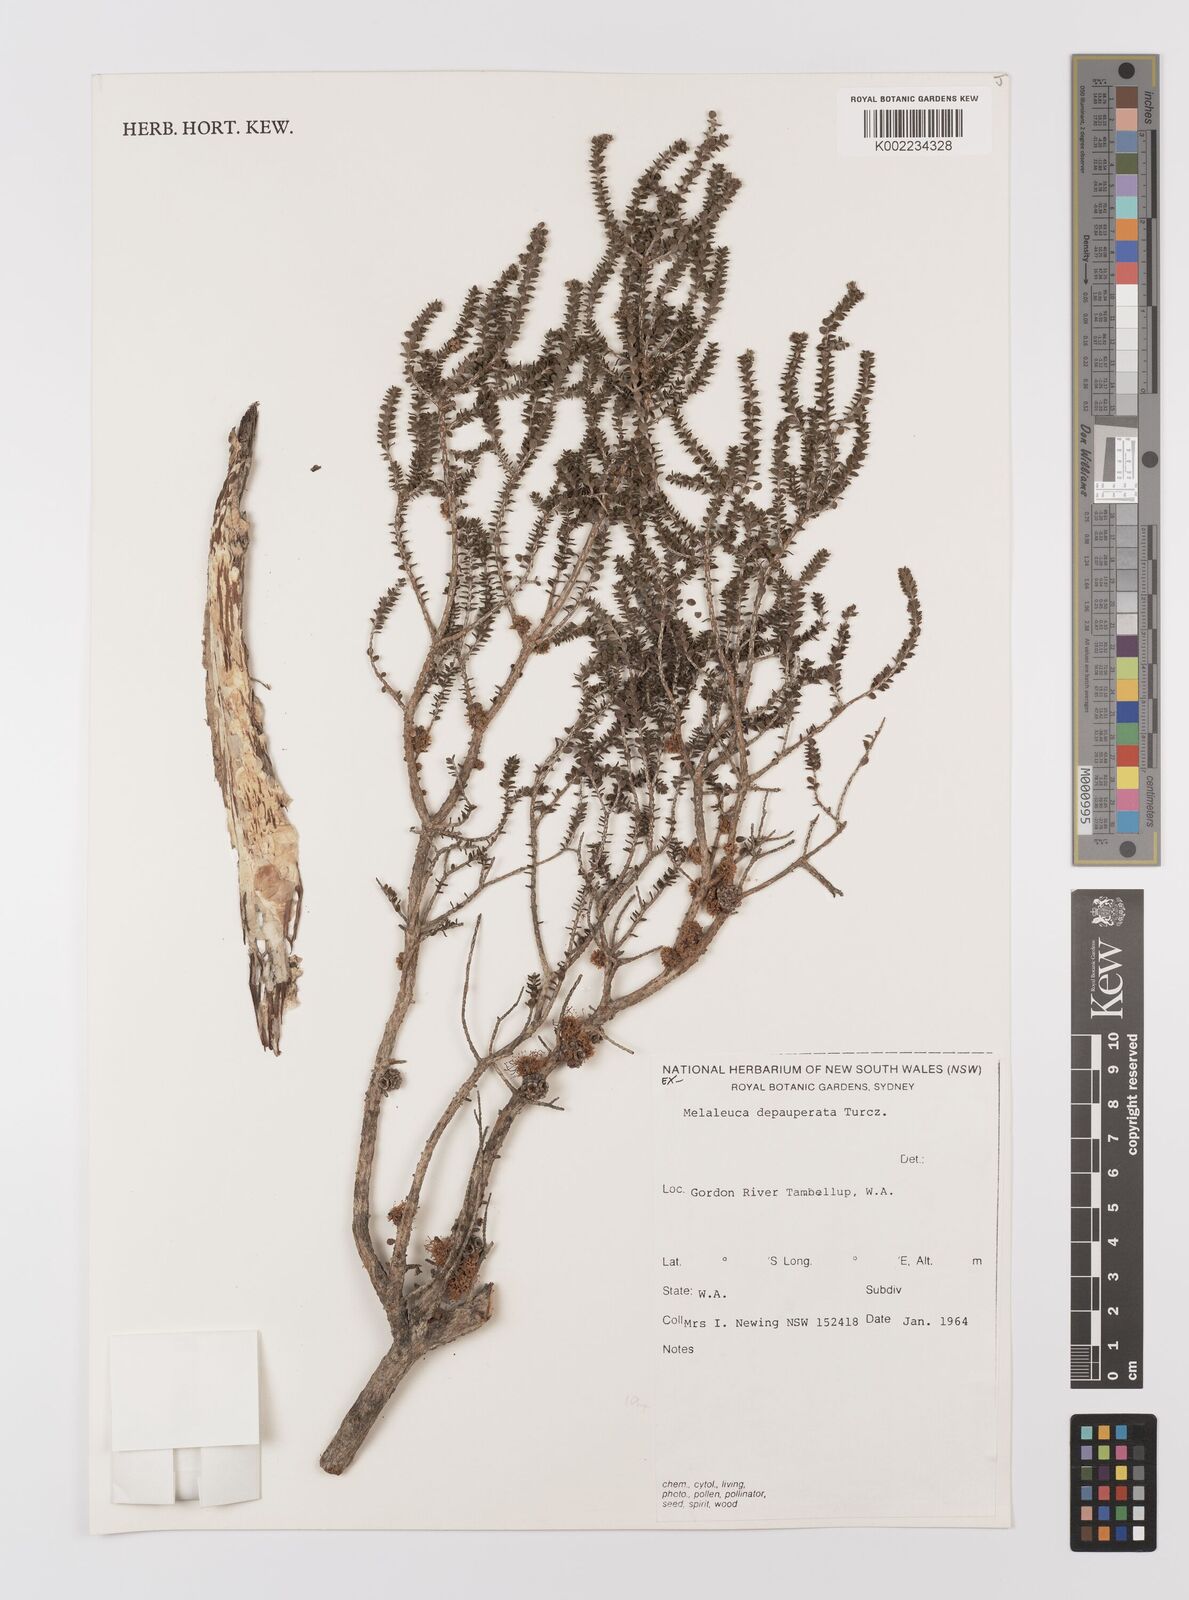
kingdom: Plantae
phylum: Tracheophyta
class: Magnoliopsida
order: Myrtales
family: Myrtaceae
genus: Melaleuca
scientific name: Melaleuca depauperata
